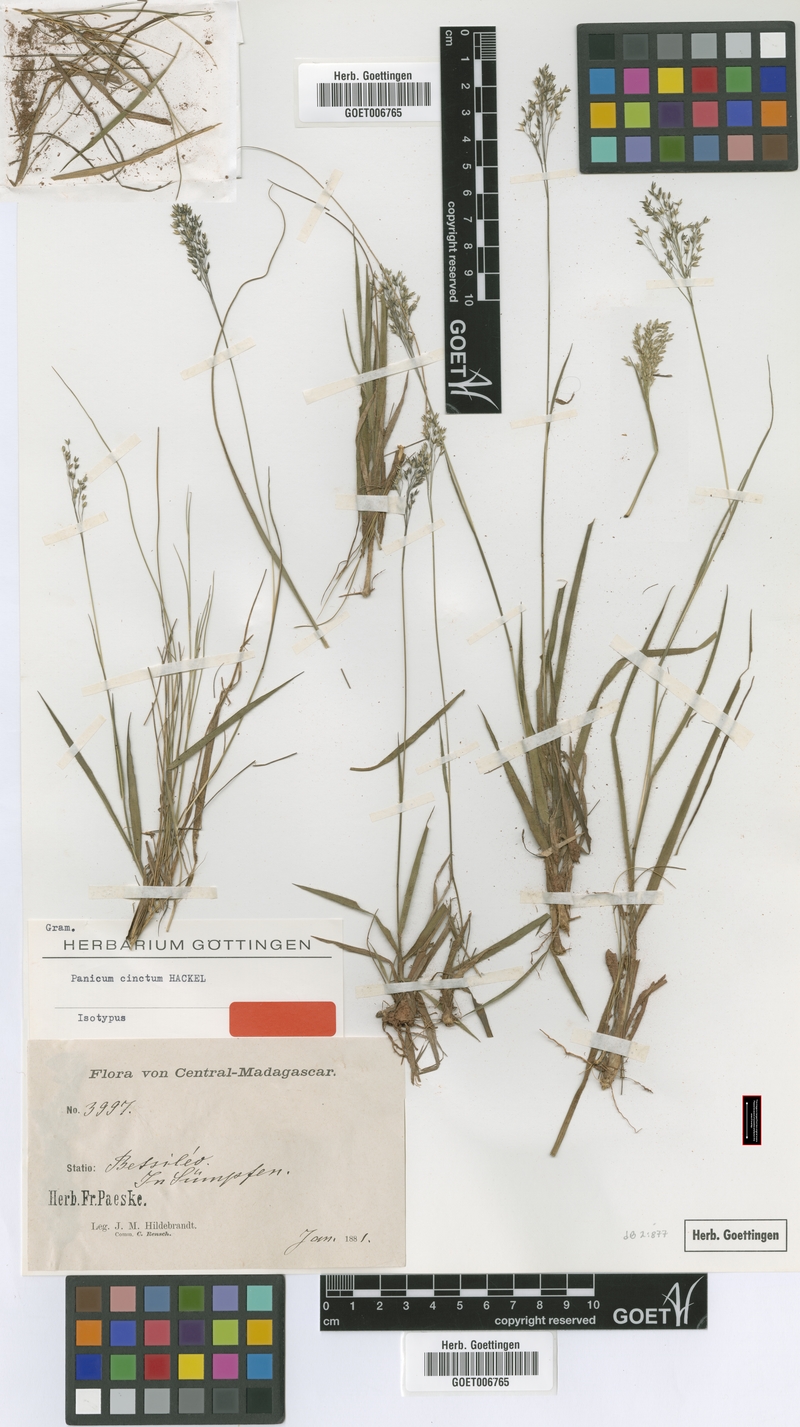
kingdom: Plantae
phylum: Tracheophyta
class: Liliopsida
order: Poales
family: Poaceae
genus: Panicum
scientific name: Panicum cinctum
